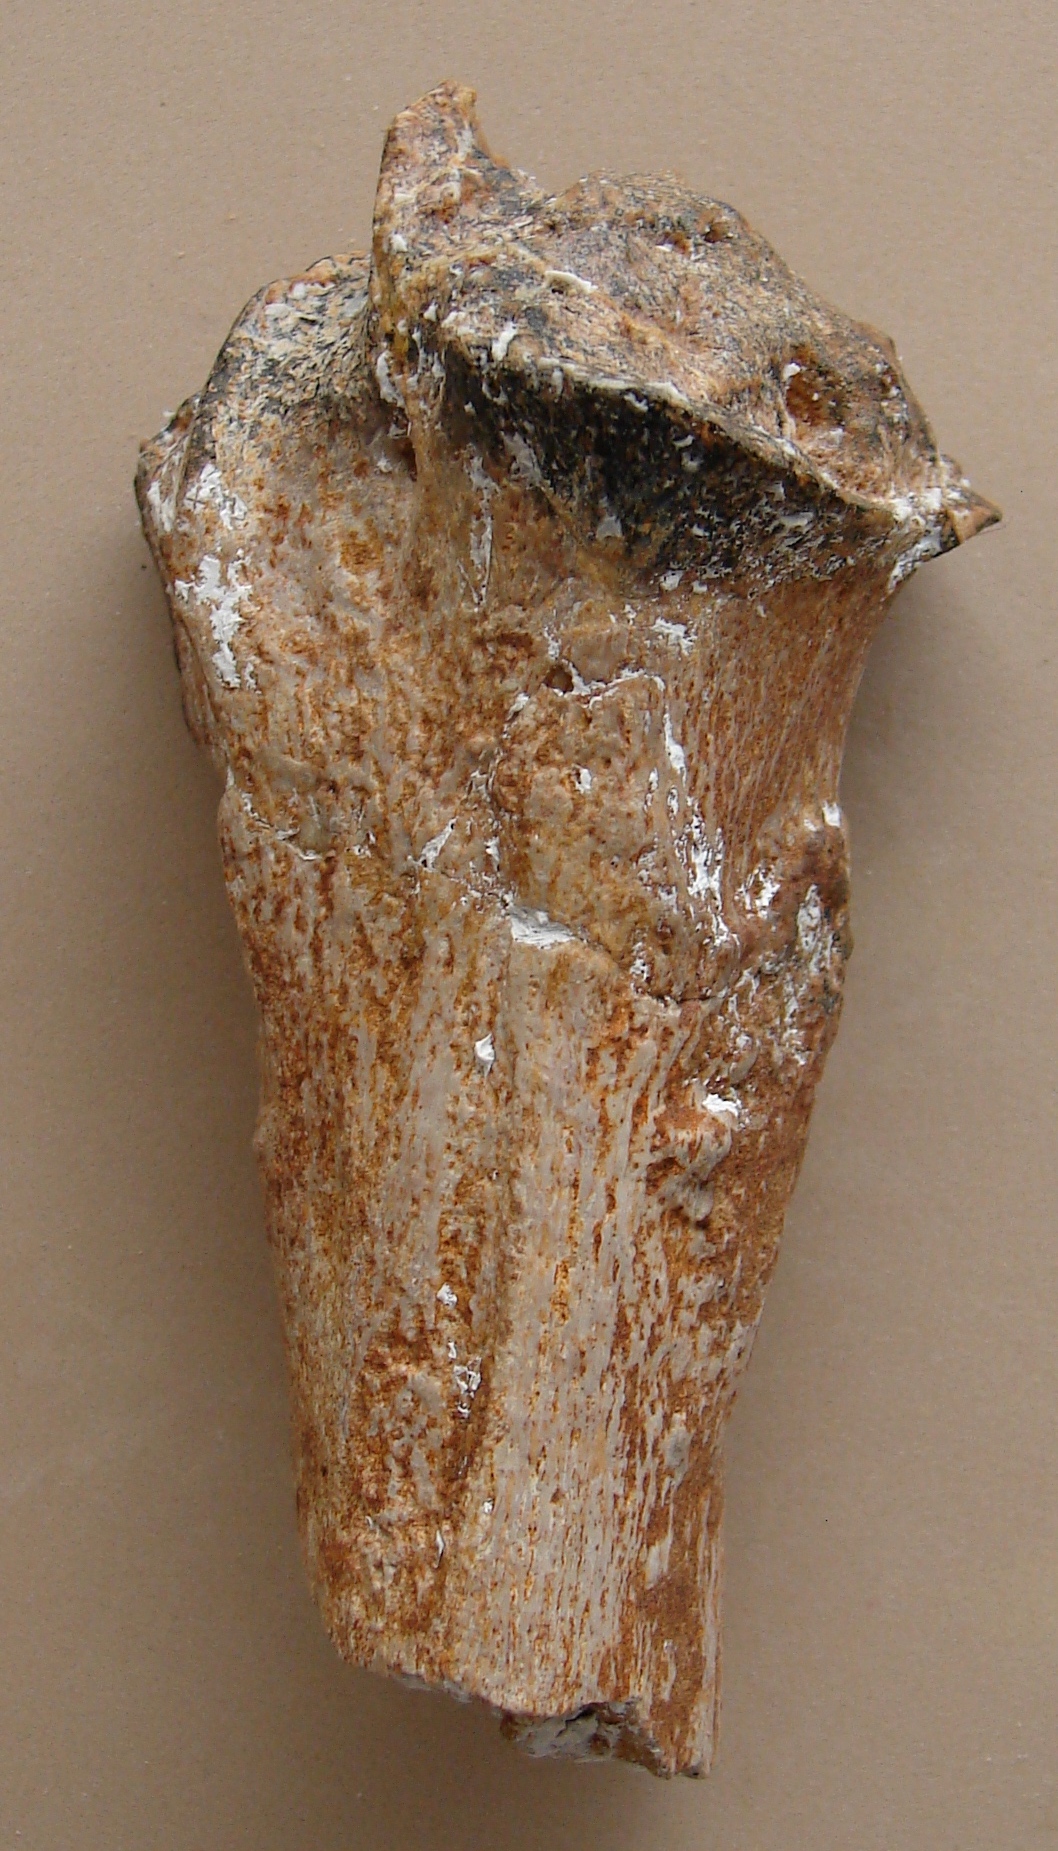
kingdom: Animalia
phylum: Chordata
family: Plesiosauridae
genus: Plesiosaurus
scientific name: Plesiosaurus
